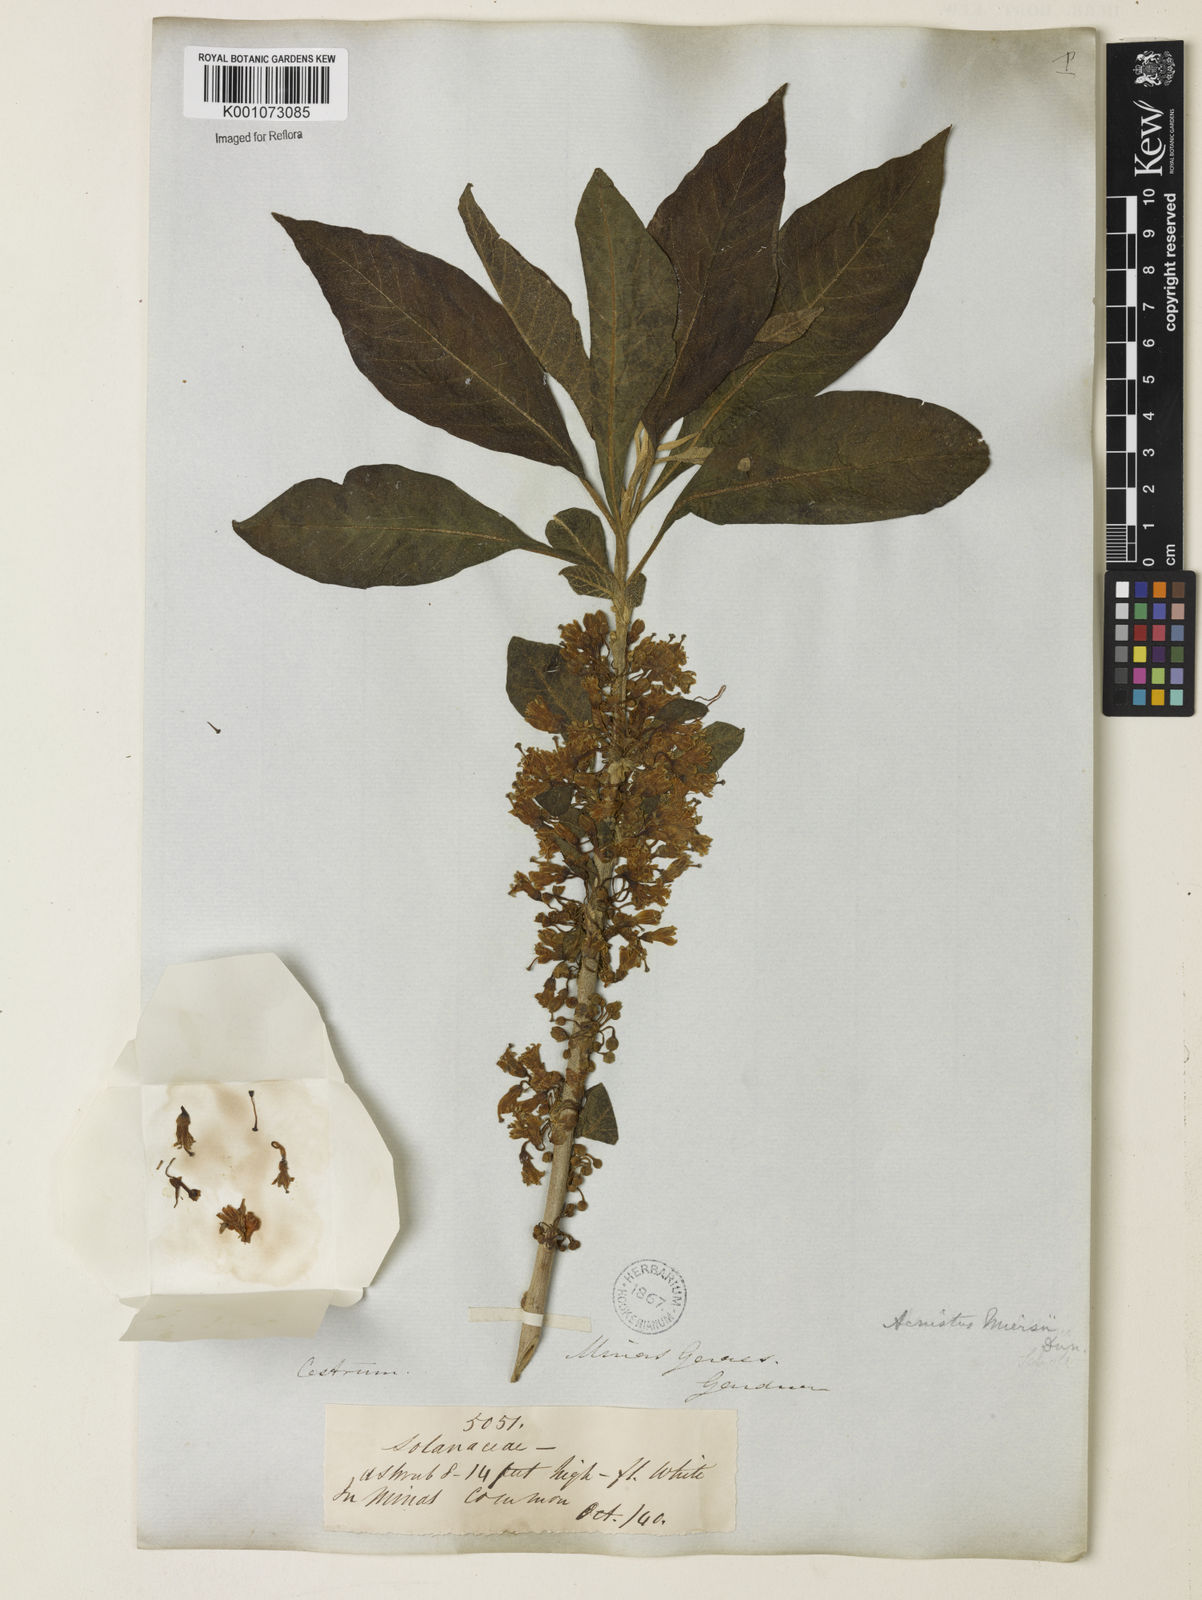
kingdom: Plantae
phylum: Tracheophyta
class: Magnoliopsida
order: Solanales
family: Solanaceae
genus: Iochroma
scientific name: Iochroma arborescens
